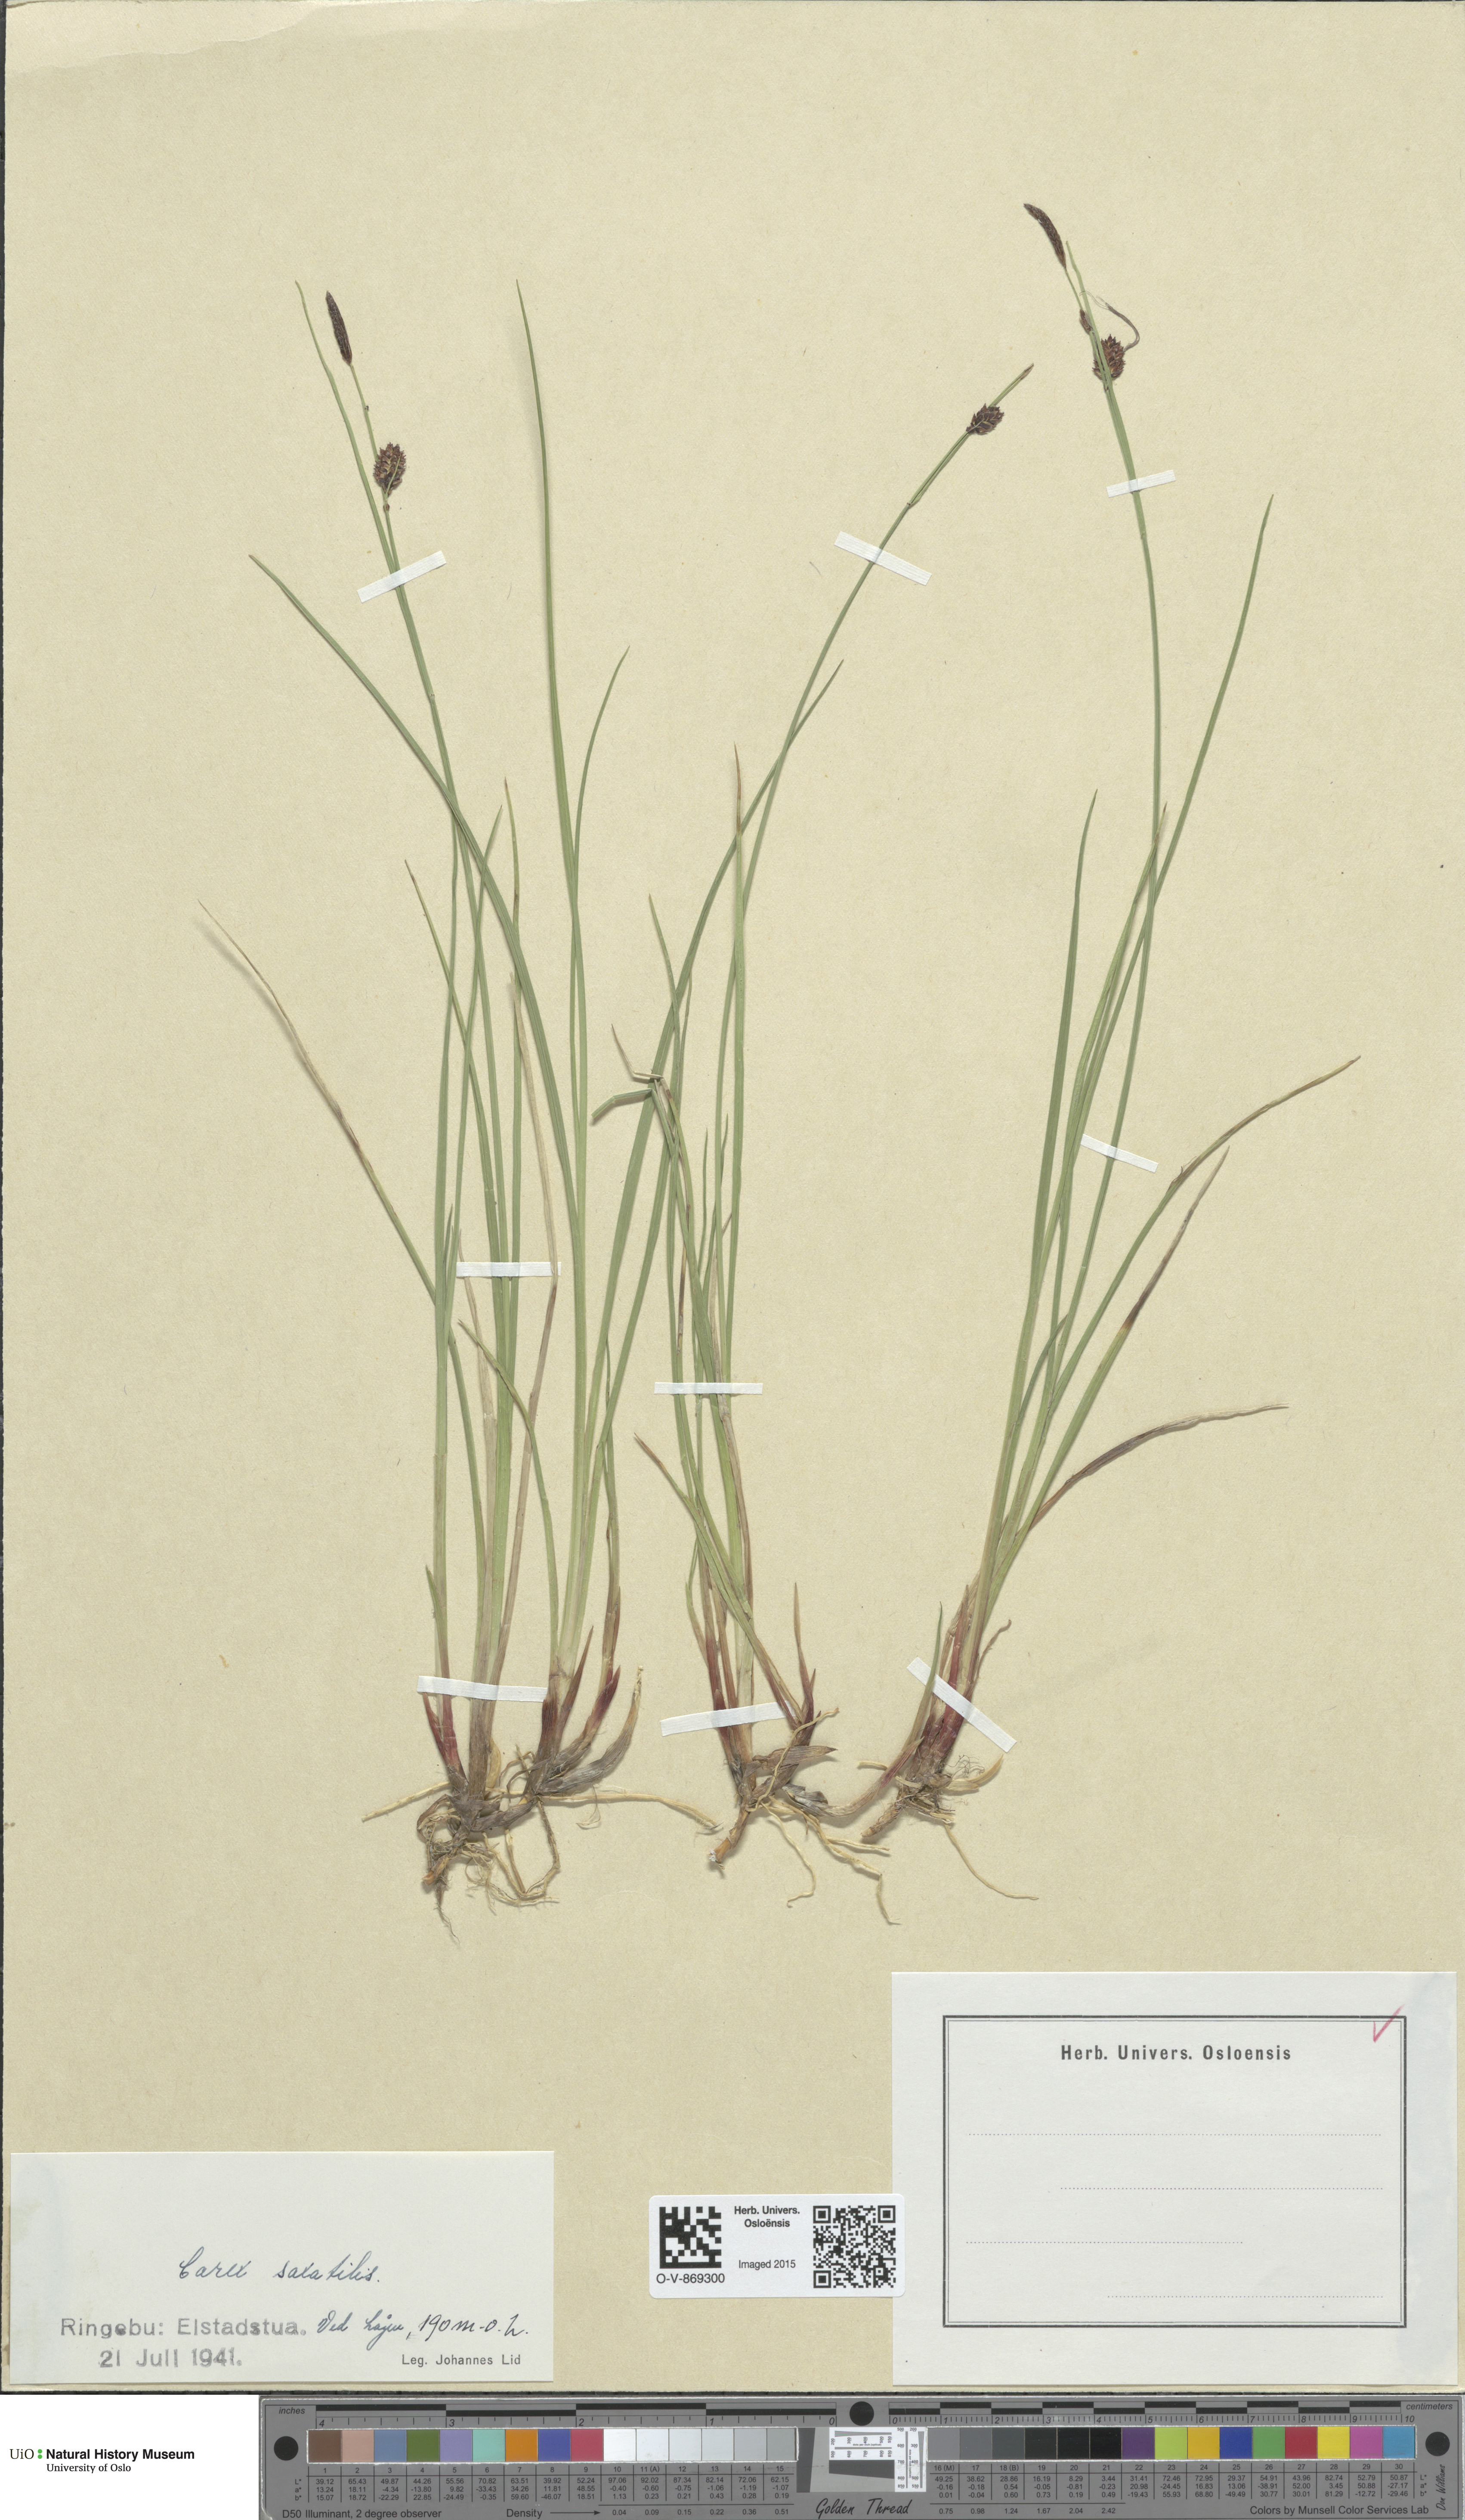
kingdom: Plantae
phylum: Tracheophyta
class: Liliopsida
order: Poales
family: Cyperaceae
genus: Carex
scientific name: Carex saxatilis
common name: Russet sedge
